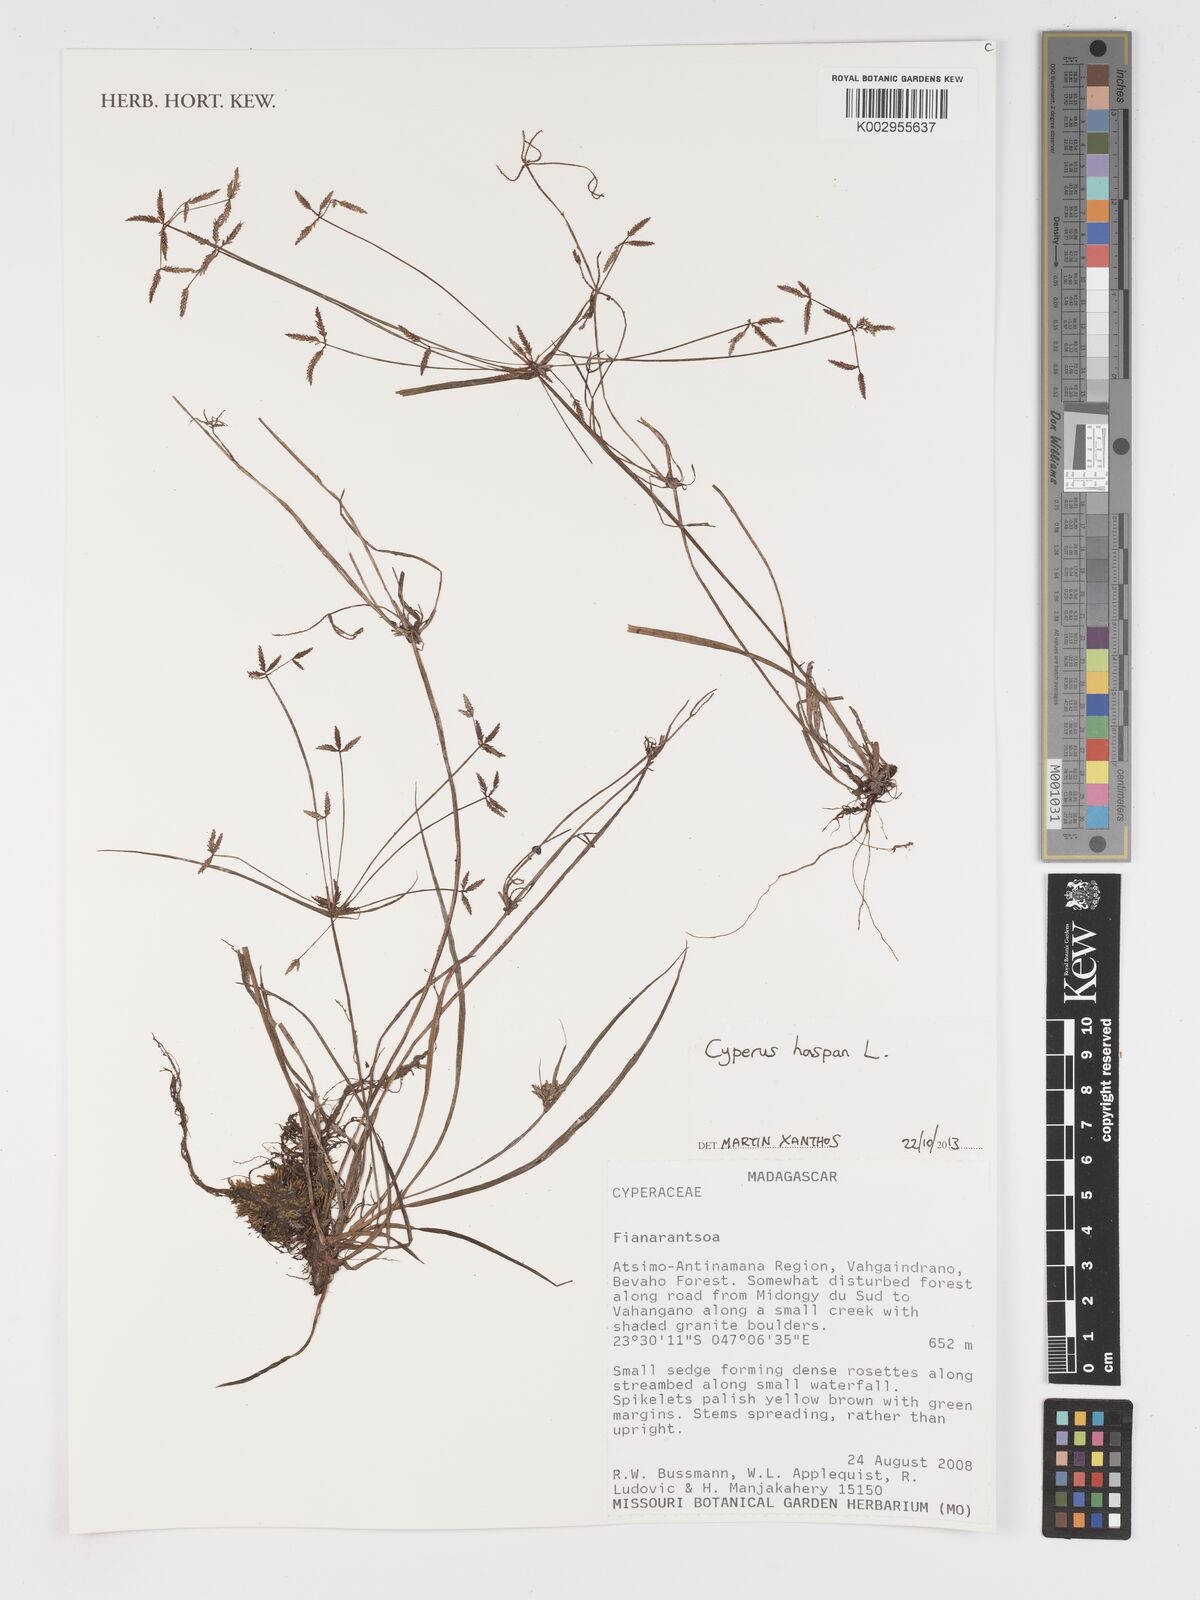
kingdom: Plantae
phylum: Tracheophyta
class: Liliopsida
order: Poales
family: Cyperaceae
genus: Cyperus
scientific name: Cyperus haspan
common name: Haspan flatsedge
